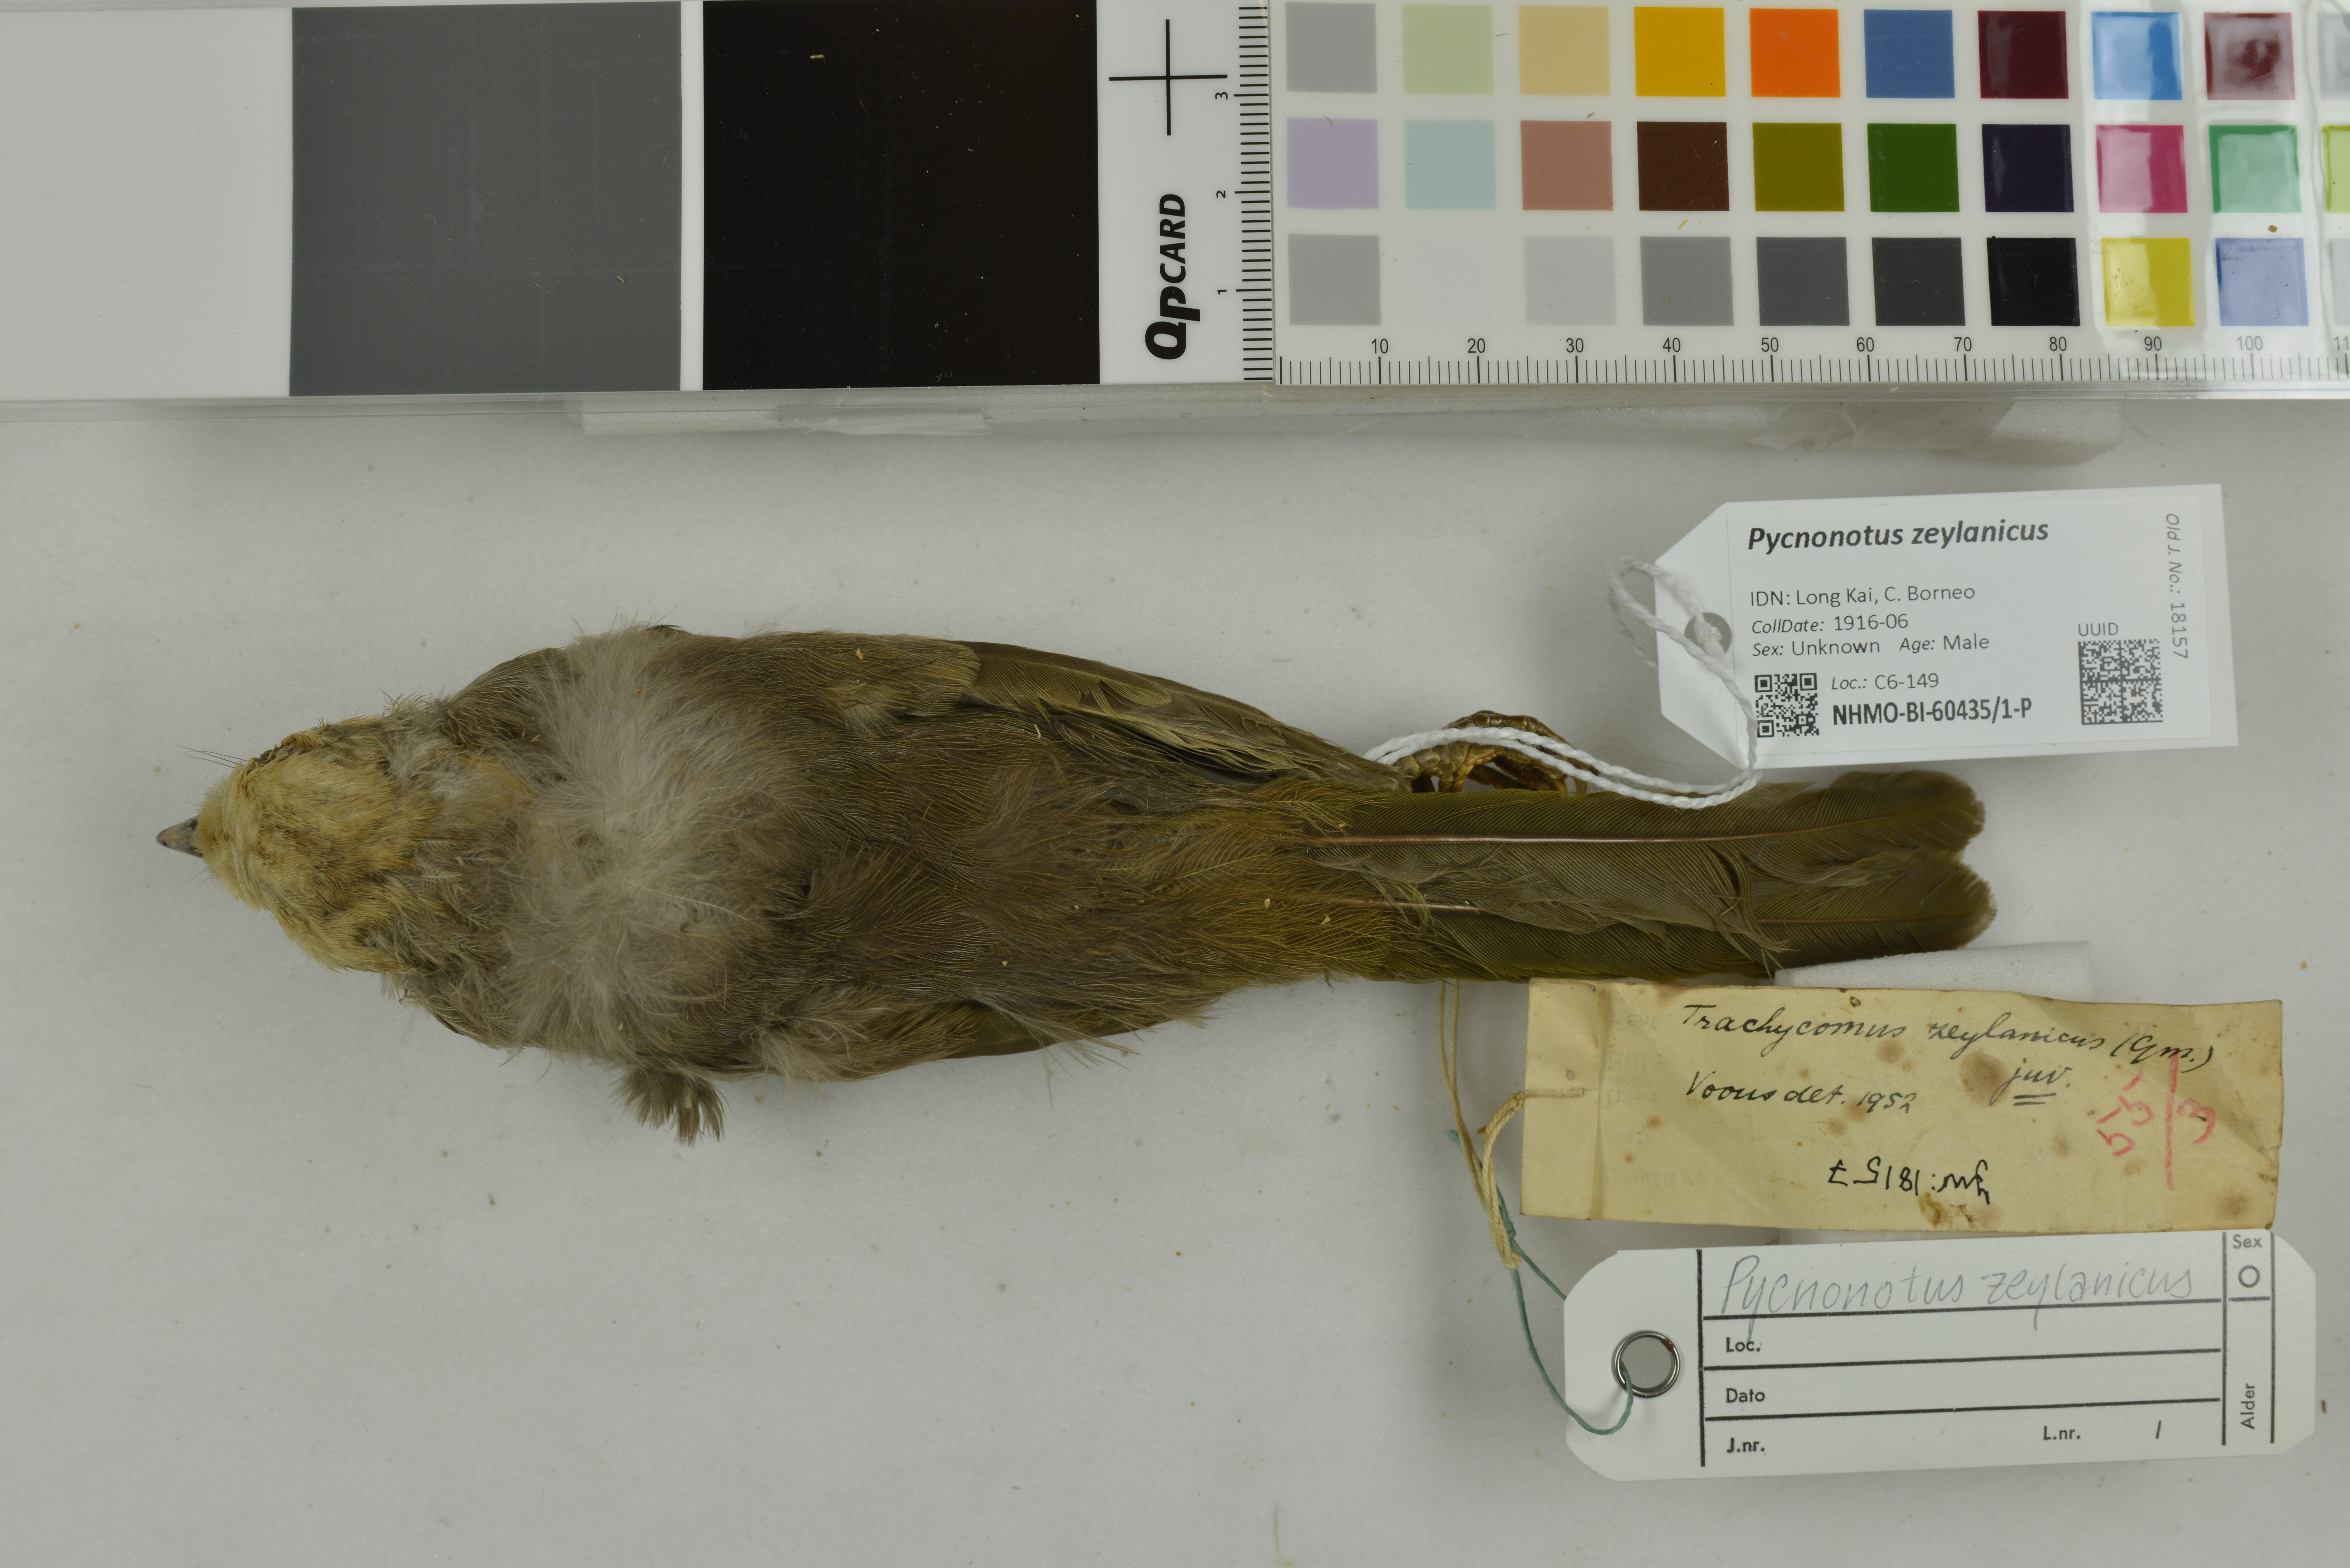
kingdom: Animalia
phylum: Chordata
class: Aves
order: Passeriformes
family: Pycnonotidae
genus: Pycnonotus
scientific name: Pycnonotus zeylanicus
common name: Straw-headed bulbul
